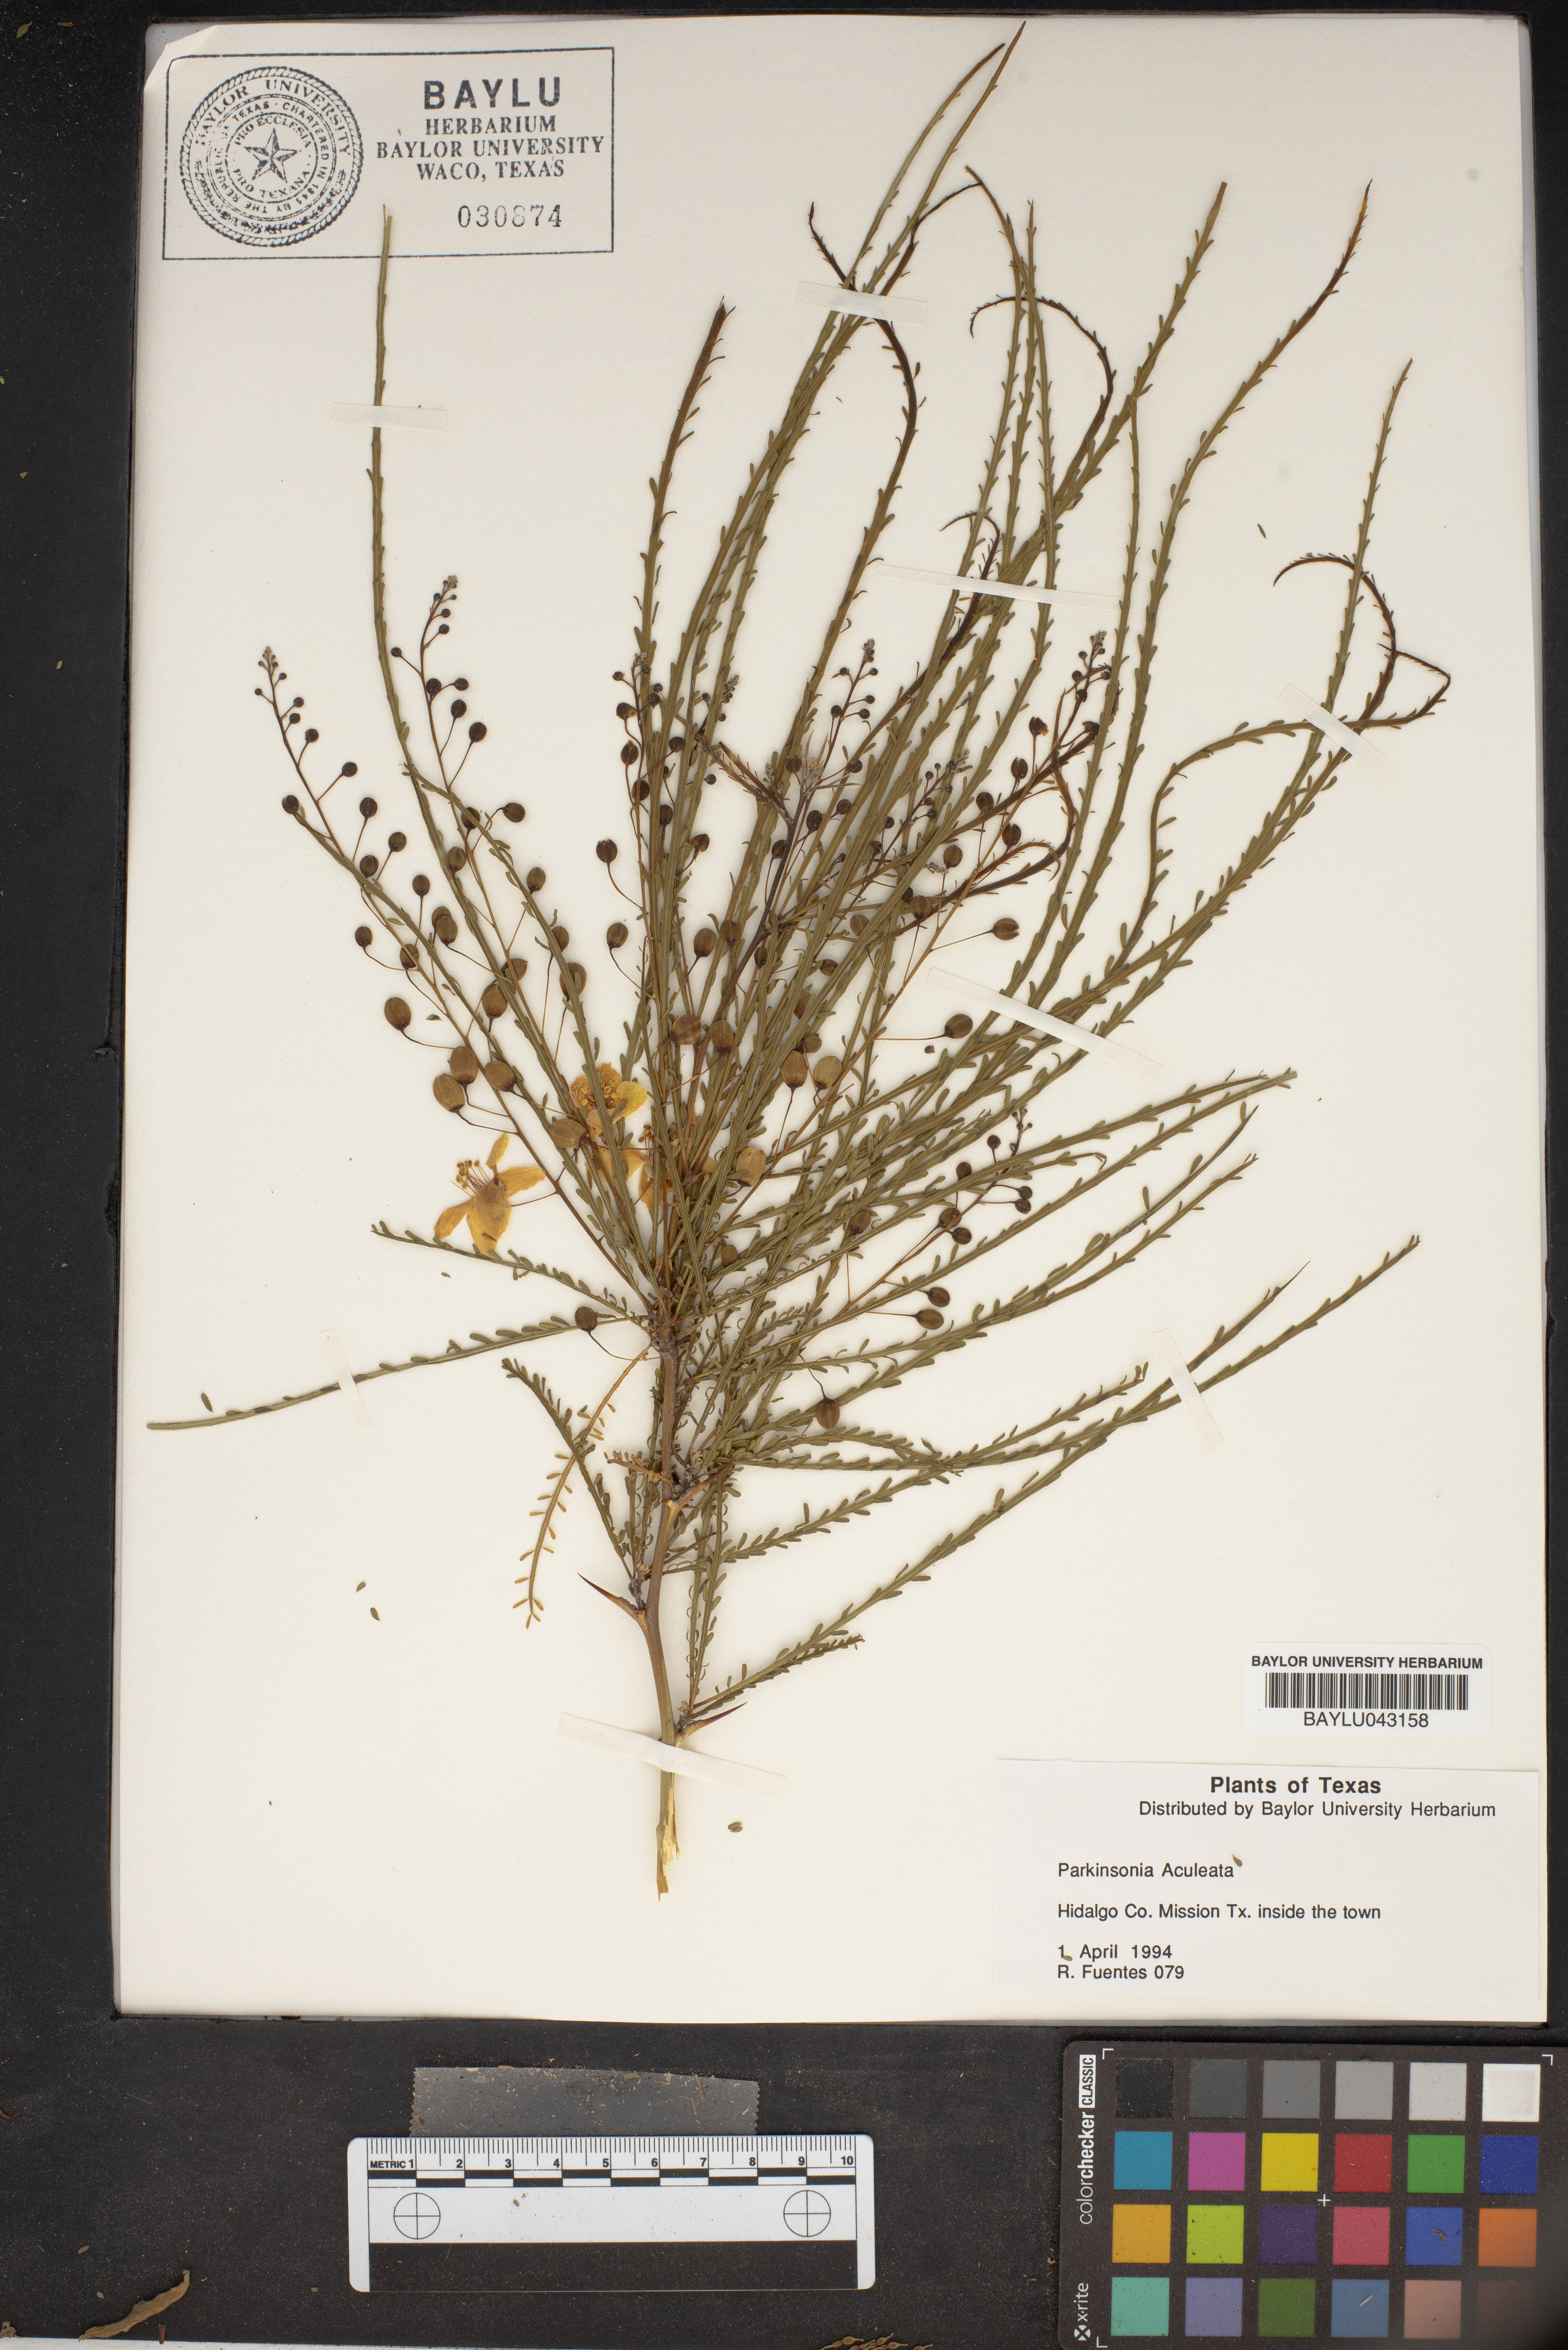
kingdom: Plantae
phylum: Tracheophyta
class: Magnoliopsida
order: Fabales
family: Fabaceae
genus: Parkinsonia
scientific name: Parkinsonia aculeata
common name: Jerusalem thorn
